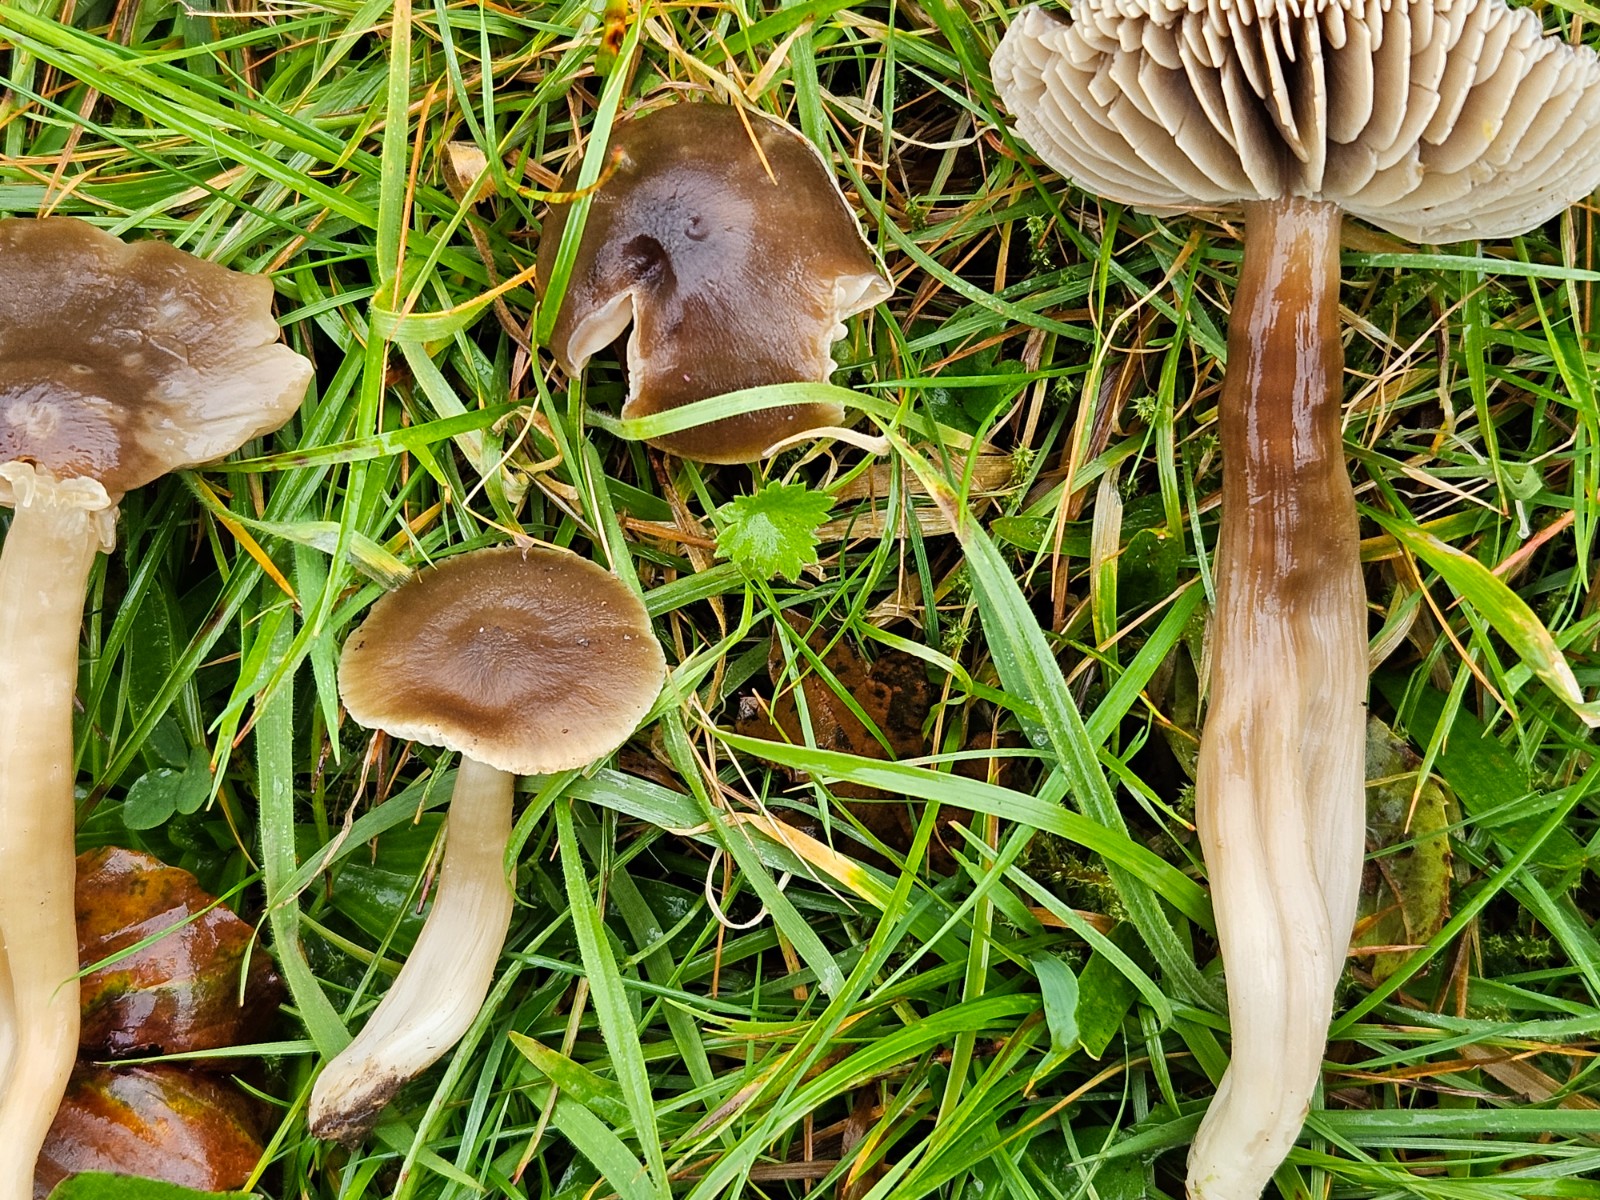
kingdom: Fungi
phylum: Basidiomycota
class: Agaricomycetes
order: Agaricales
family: Hygrophoraceae
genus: Neohygrocybe
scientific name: Neohygrocybe nitrata
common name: stinkende vokshat
